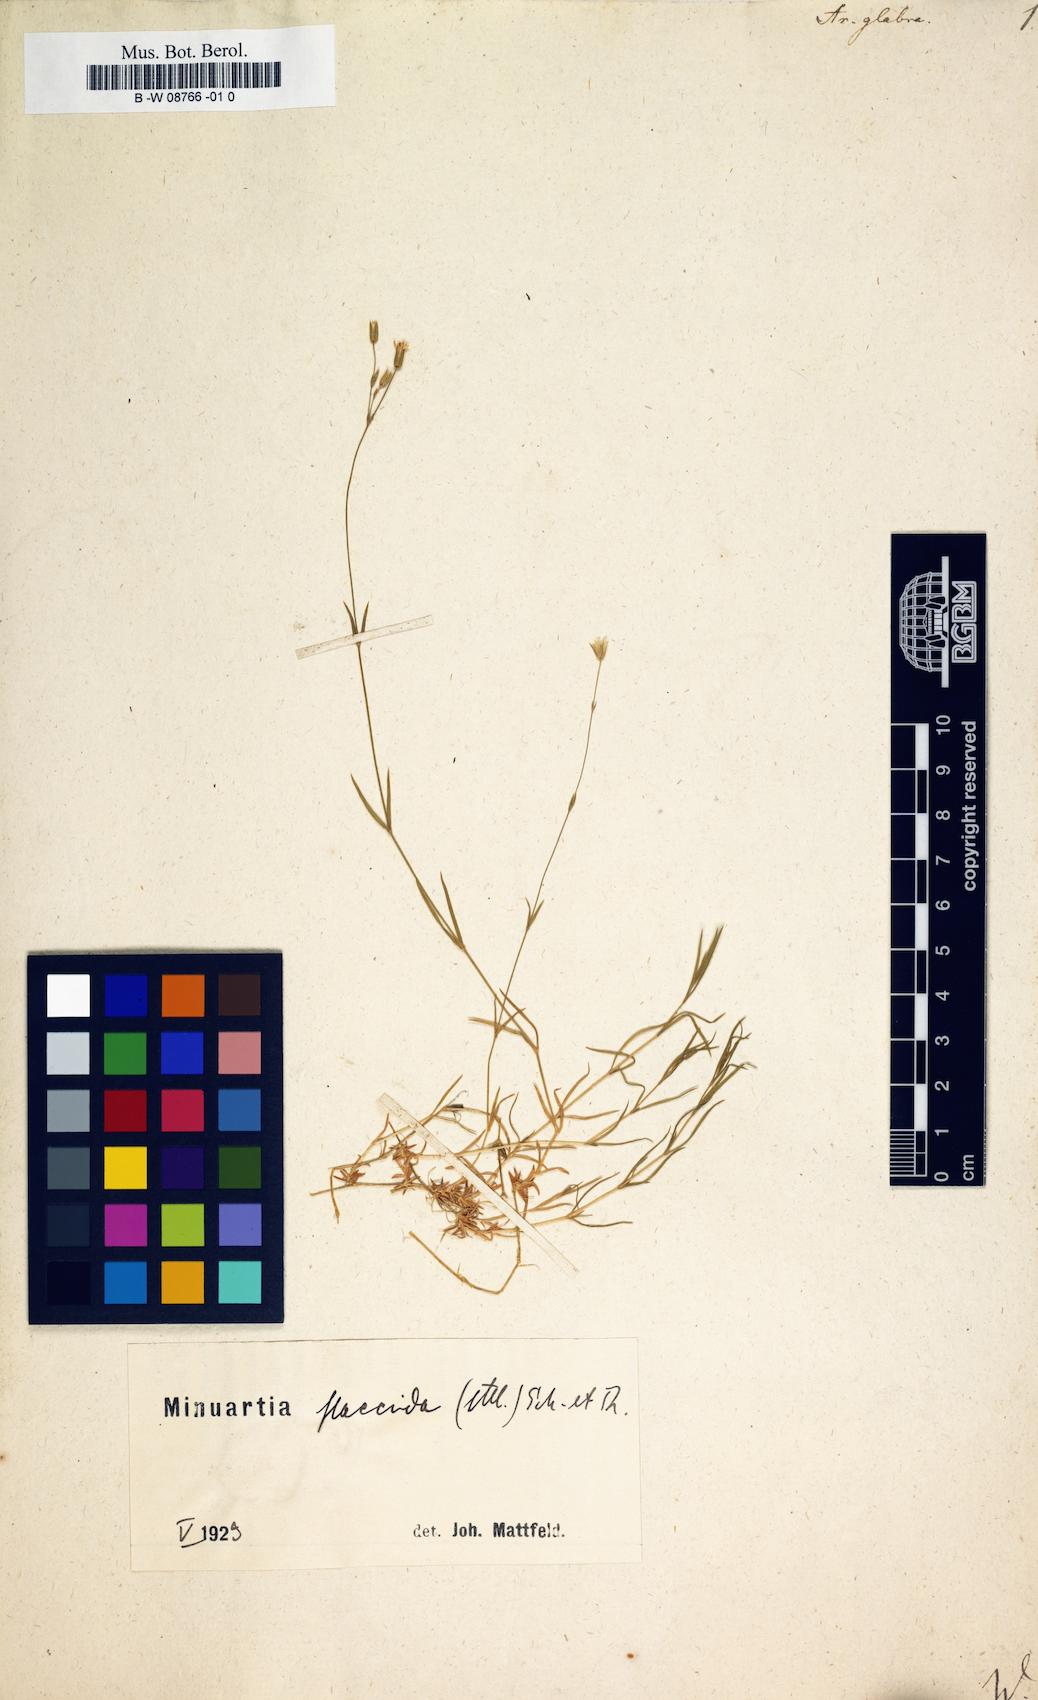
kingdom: Plantae
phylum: Tracheophyta
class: Magnoliopsida
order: Caryophyllales
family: Caryophyllaceae
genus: Geocarpon
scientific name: Geocarpon glabrum
